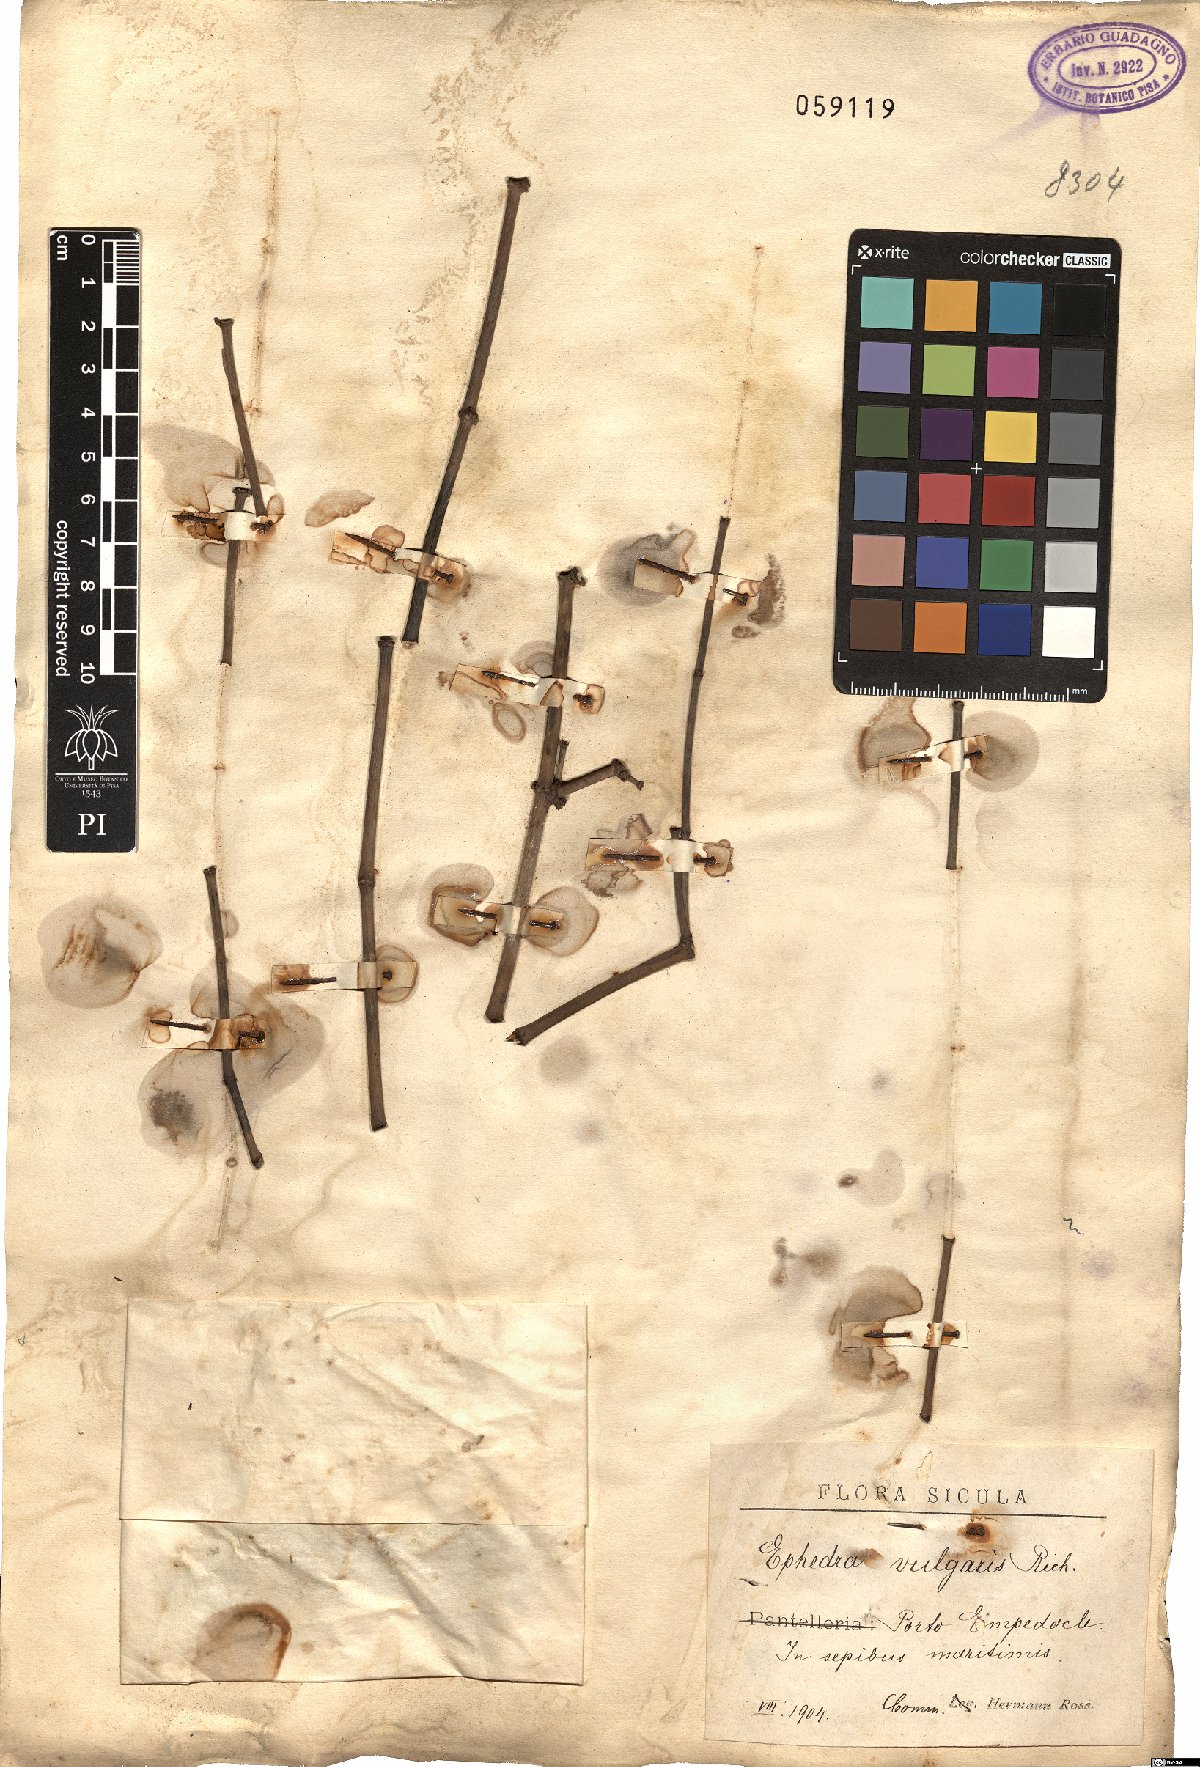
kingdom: Plantae
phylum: Tracheophyta
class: Gnetopsida
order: Ephedrales
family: Ephedraceae
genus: Ephedra
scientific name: Ephedra distachya
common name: Sea grape
